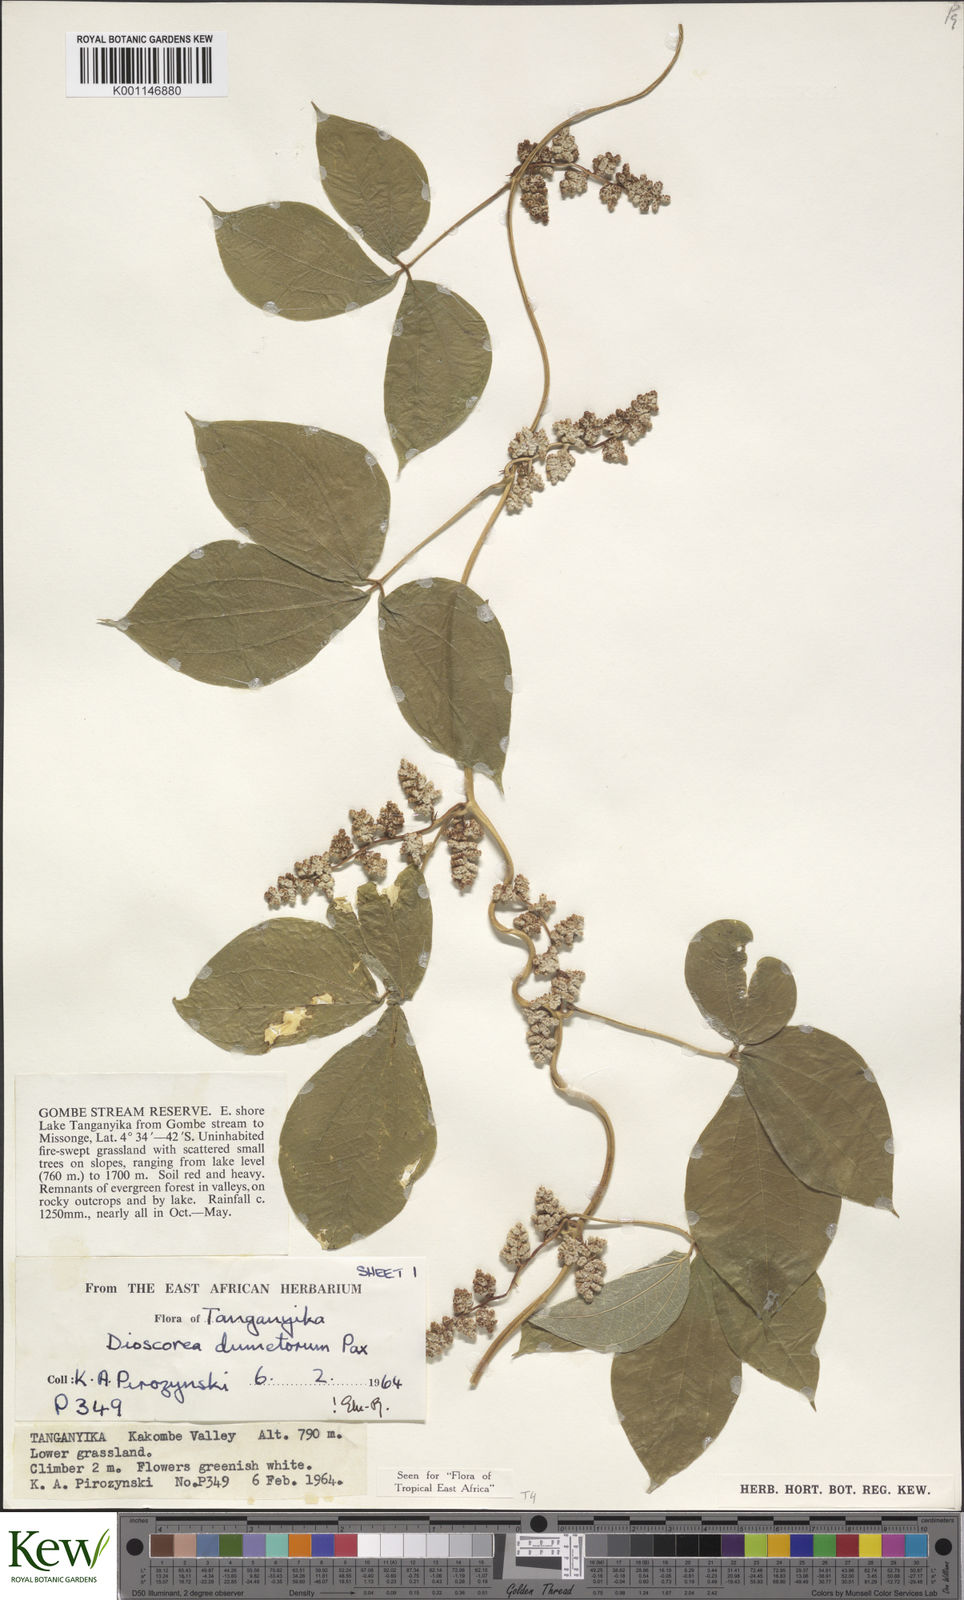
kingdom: Plantae
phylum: Tracheophyta
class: Liliopsida
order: Dioscoreales
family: Dioscoreaceae
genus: Dioscorea
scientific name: Dioscorea dumetorum
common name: African bitter yam
